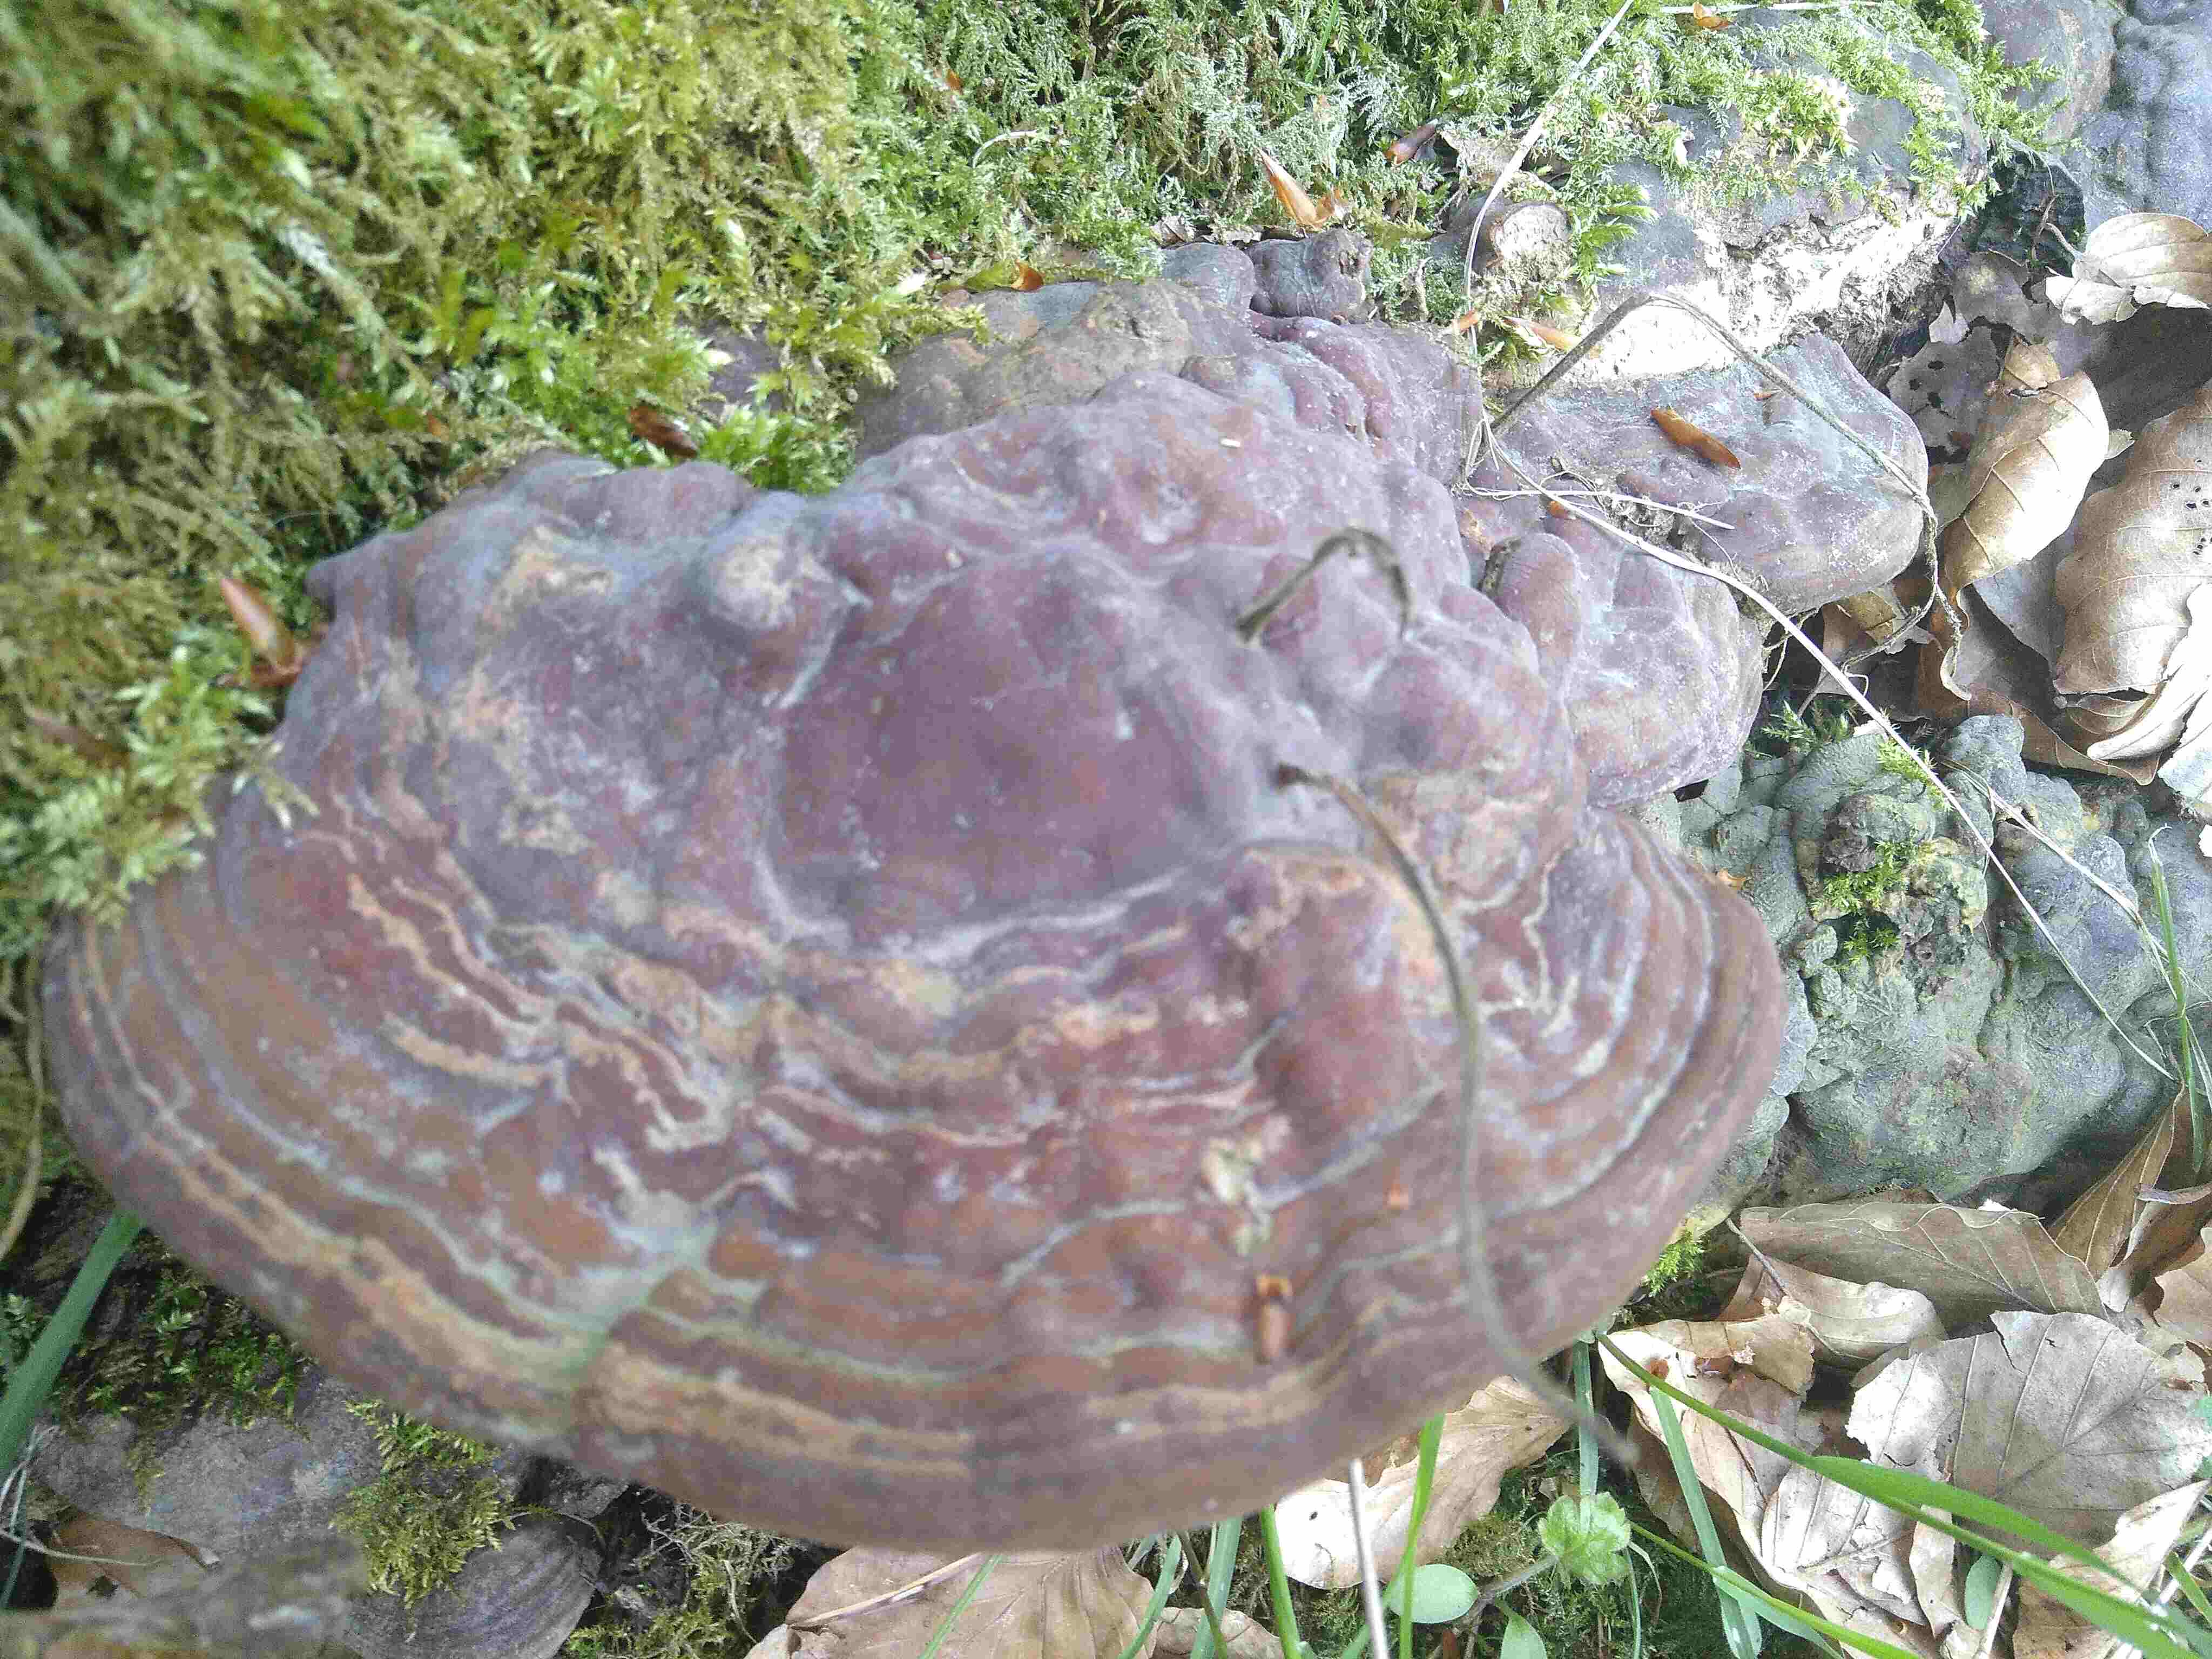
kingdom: Fungi
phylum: Basidiomycota
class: Agaricomycetes
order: Polyporales
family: Polyporaceae
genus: Ganoderma
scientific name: Ganoderma pfeifferi
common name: kobberrød lakporesvamp
